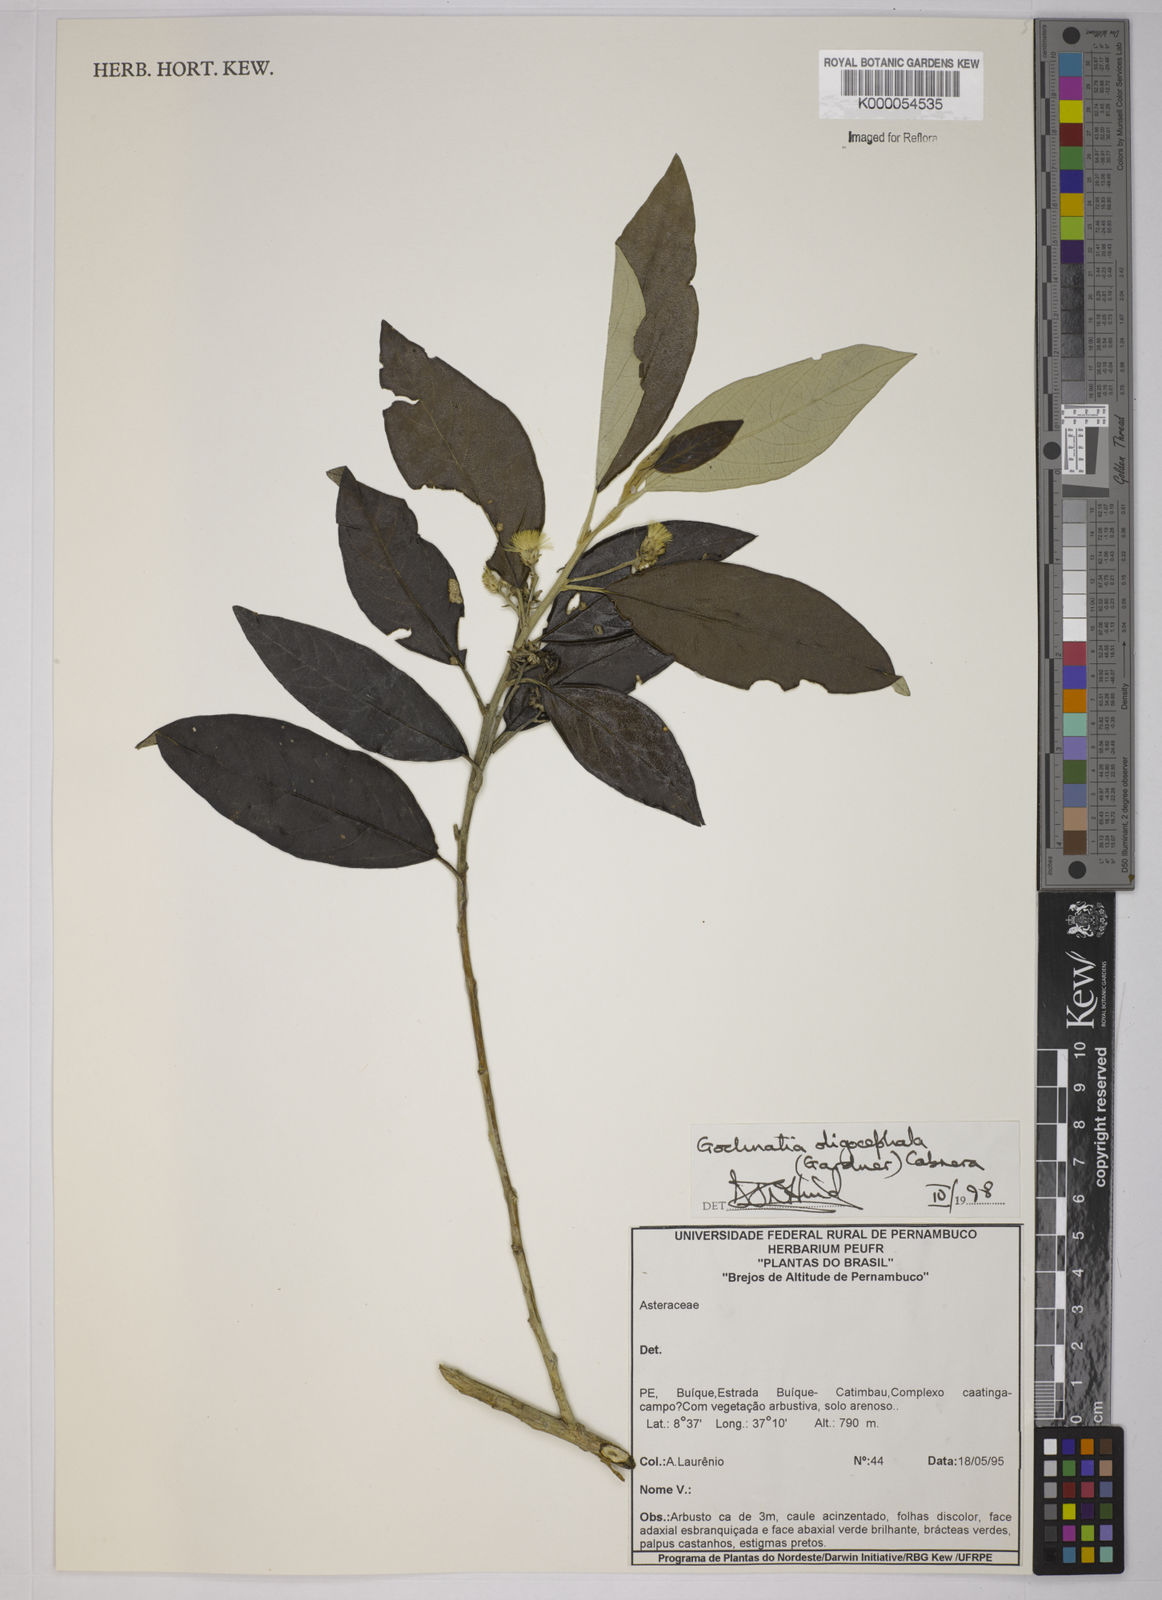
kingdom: Plantae
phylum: Tracheophyta
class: Magnoliopsida
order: Asterales
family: Asteraceae
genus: Moquiniastrum
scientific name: Moquiniastrum oligocephalum
